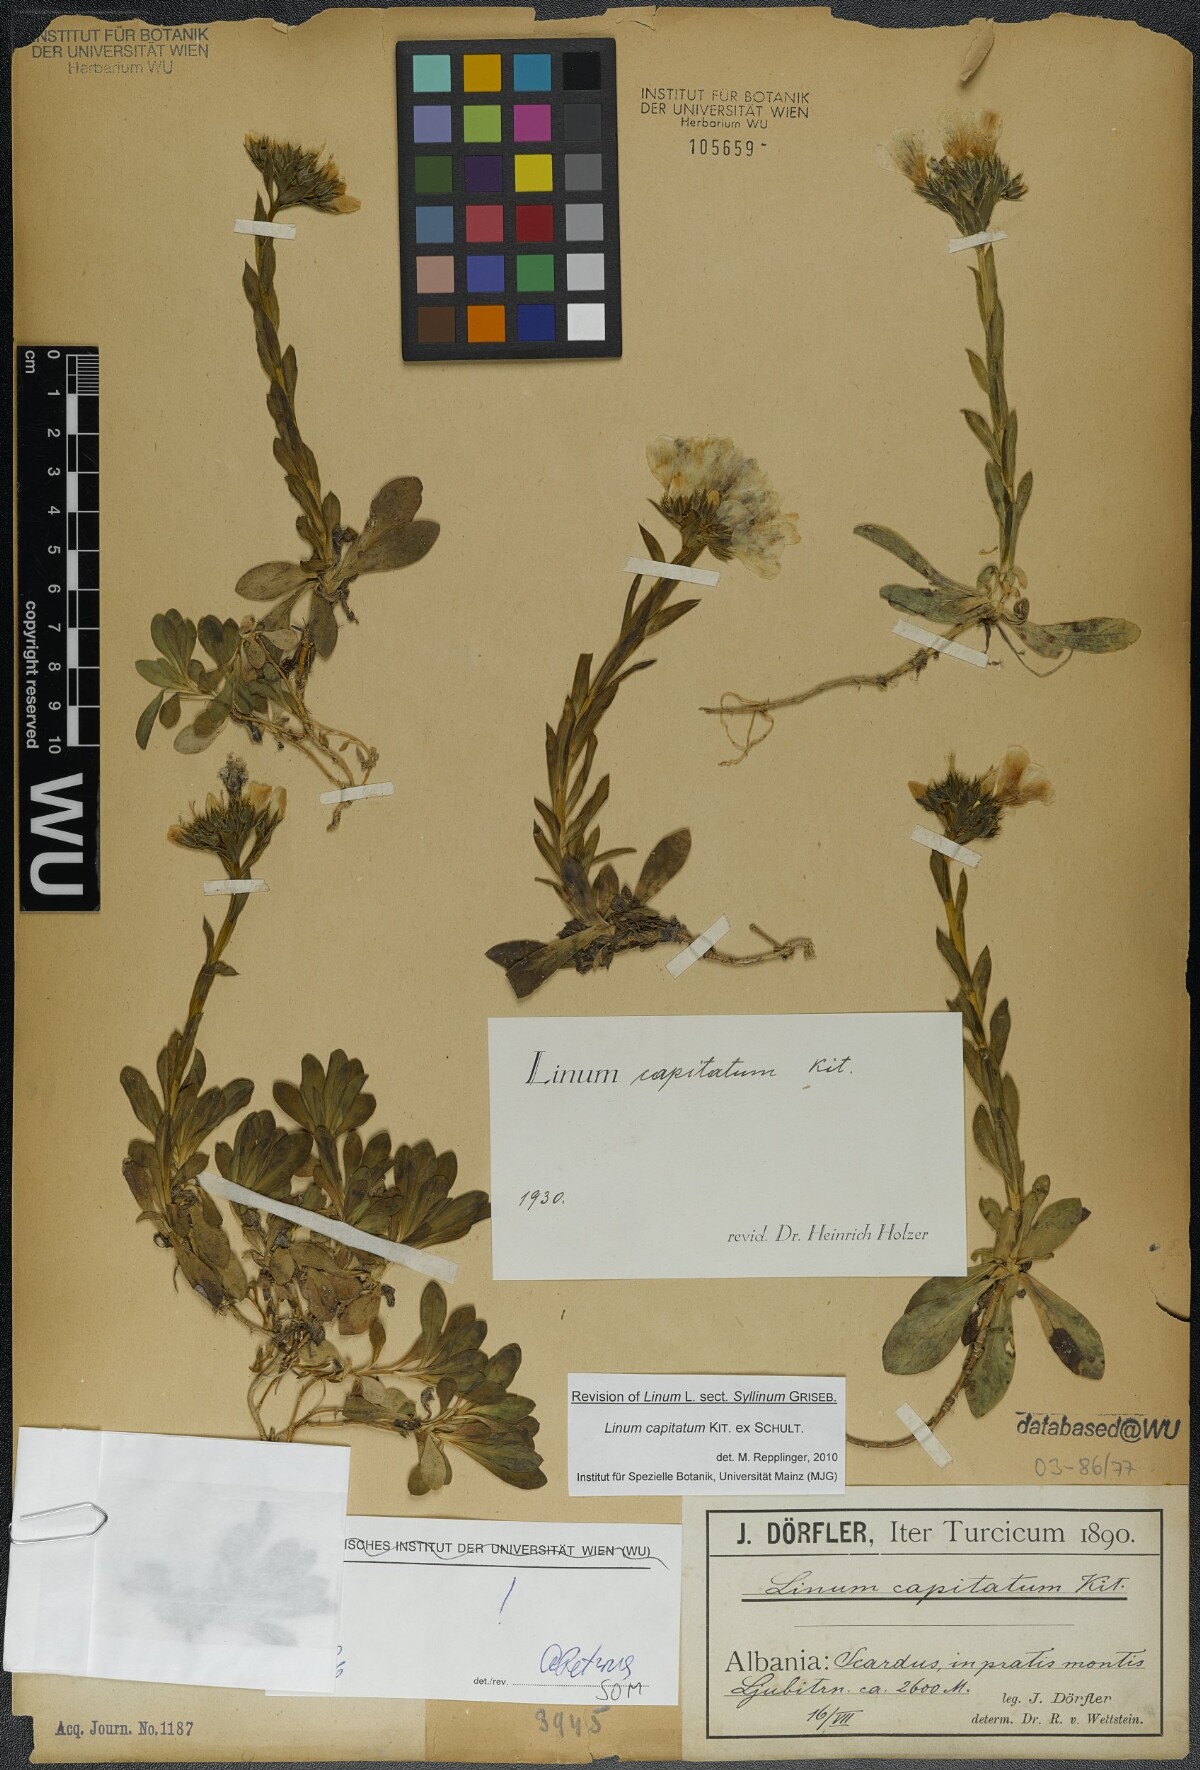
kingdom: Plantae
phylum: Tracheophyta
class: Magnoliopsida
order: Malpighiales
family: Linaceae
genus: Linum
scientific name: Linum capitatum
